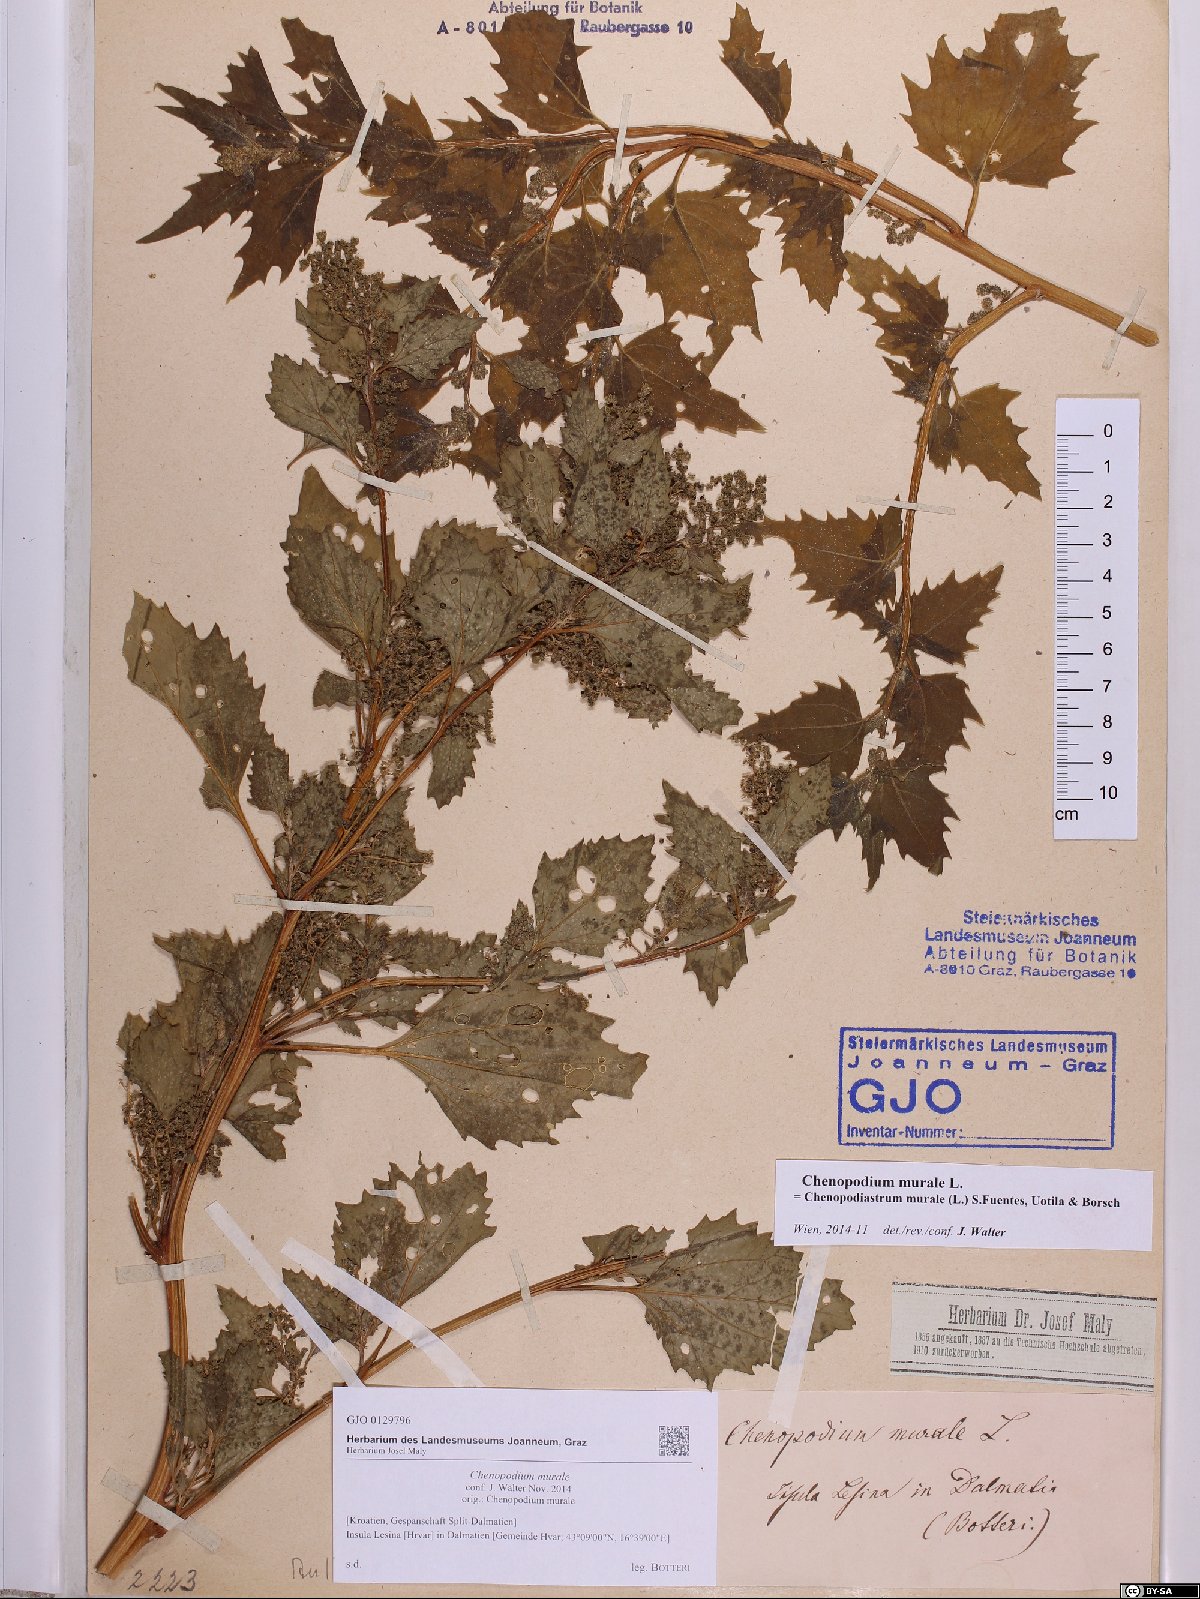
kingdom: Plantae
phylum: Tracheophyta
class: Magnoliopsida
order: Caryophyllales
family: Amaranthaceae
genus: Chenopodiastrum
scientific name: Chenopodiastrum murale
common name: Sowbane
